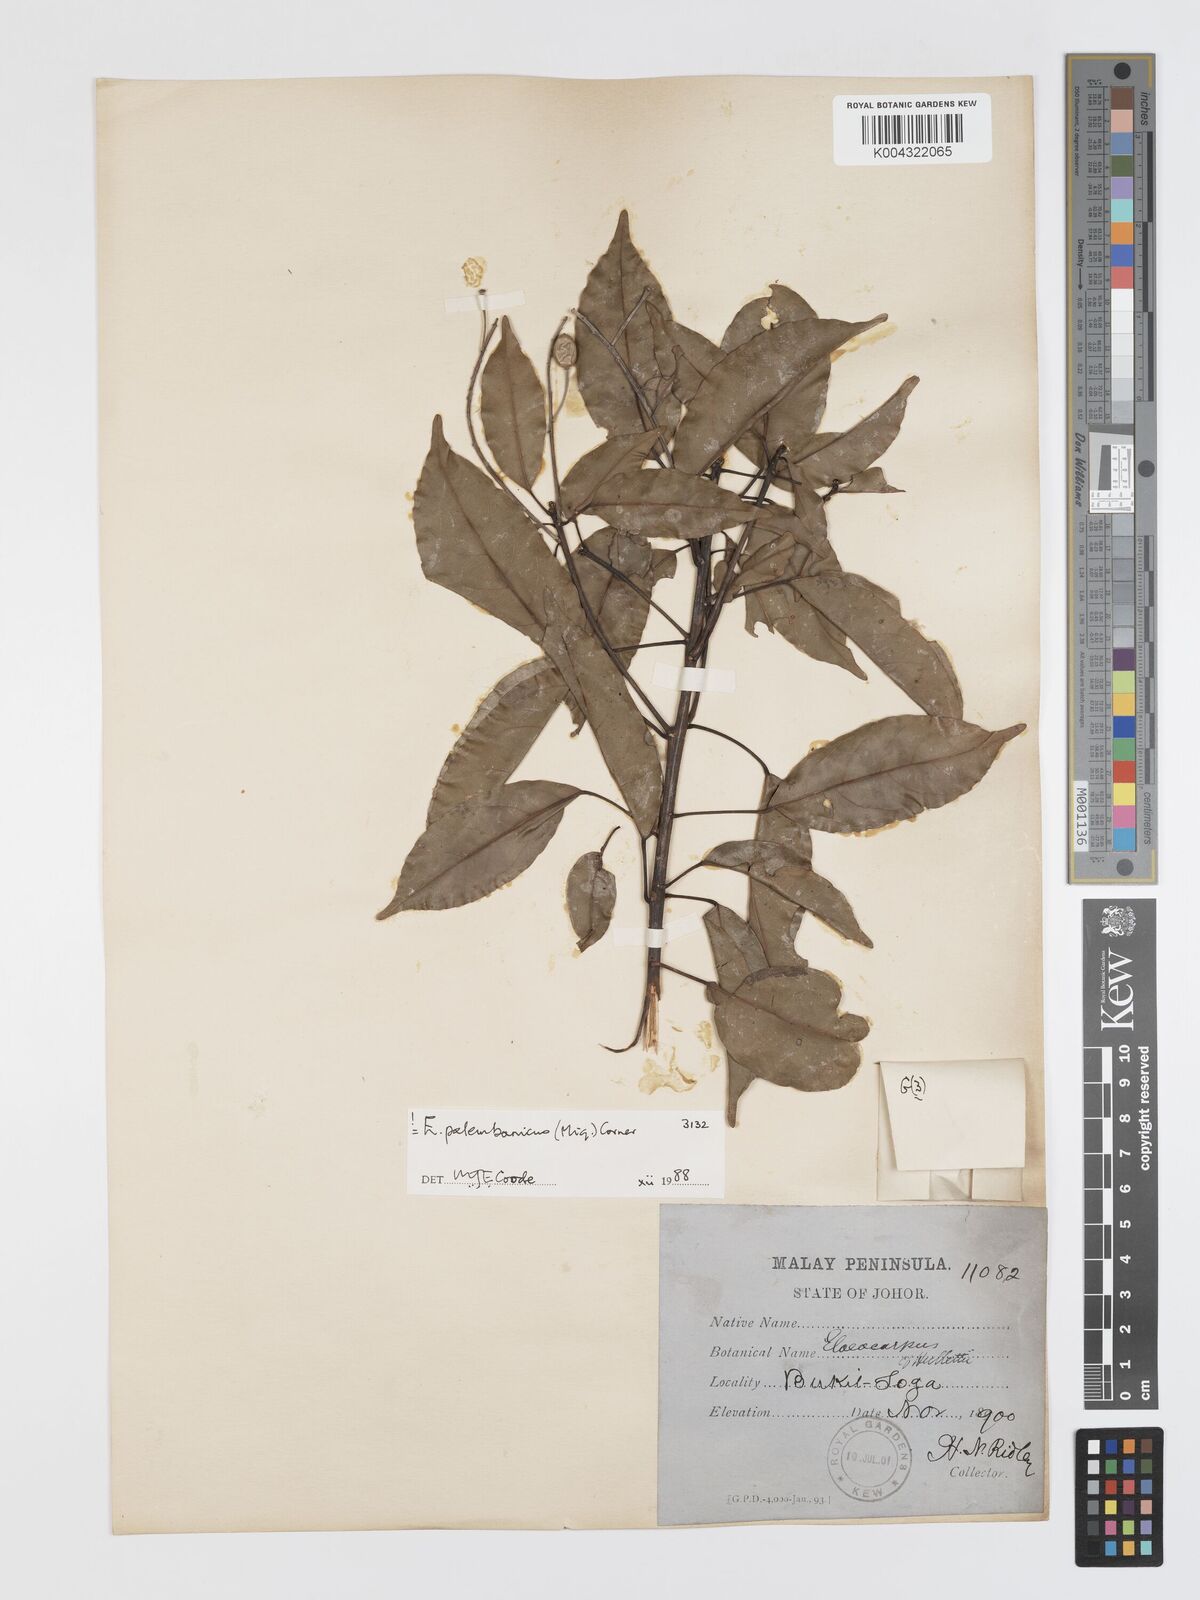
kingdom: Plantae
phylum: Tracheophyta
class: Magnoliopsida
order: Oxalidales
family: Elaeocarpaceae
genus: Elaeocarpus
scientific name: Elaeocarpus palembanicus
